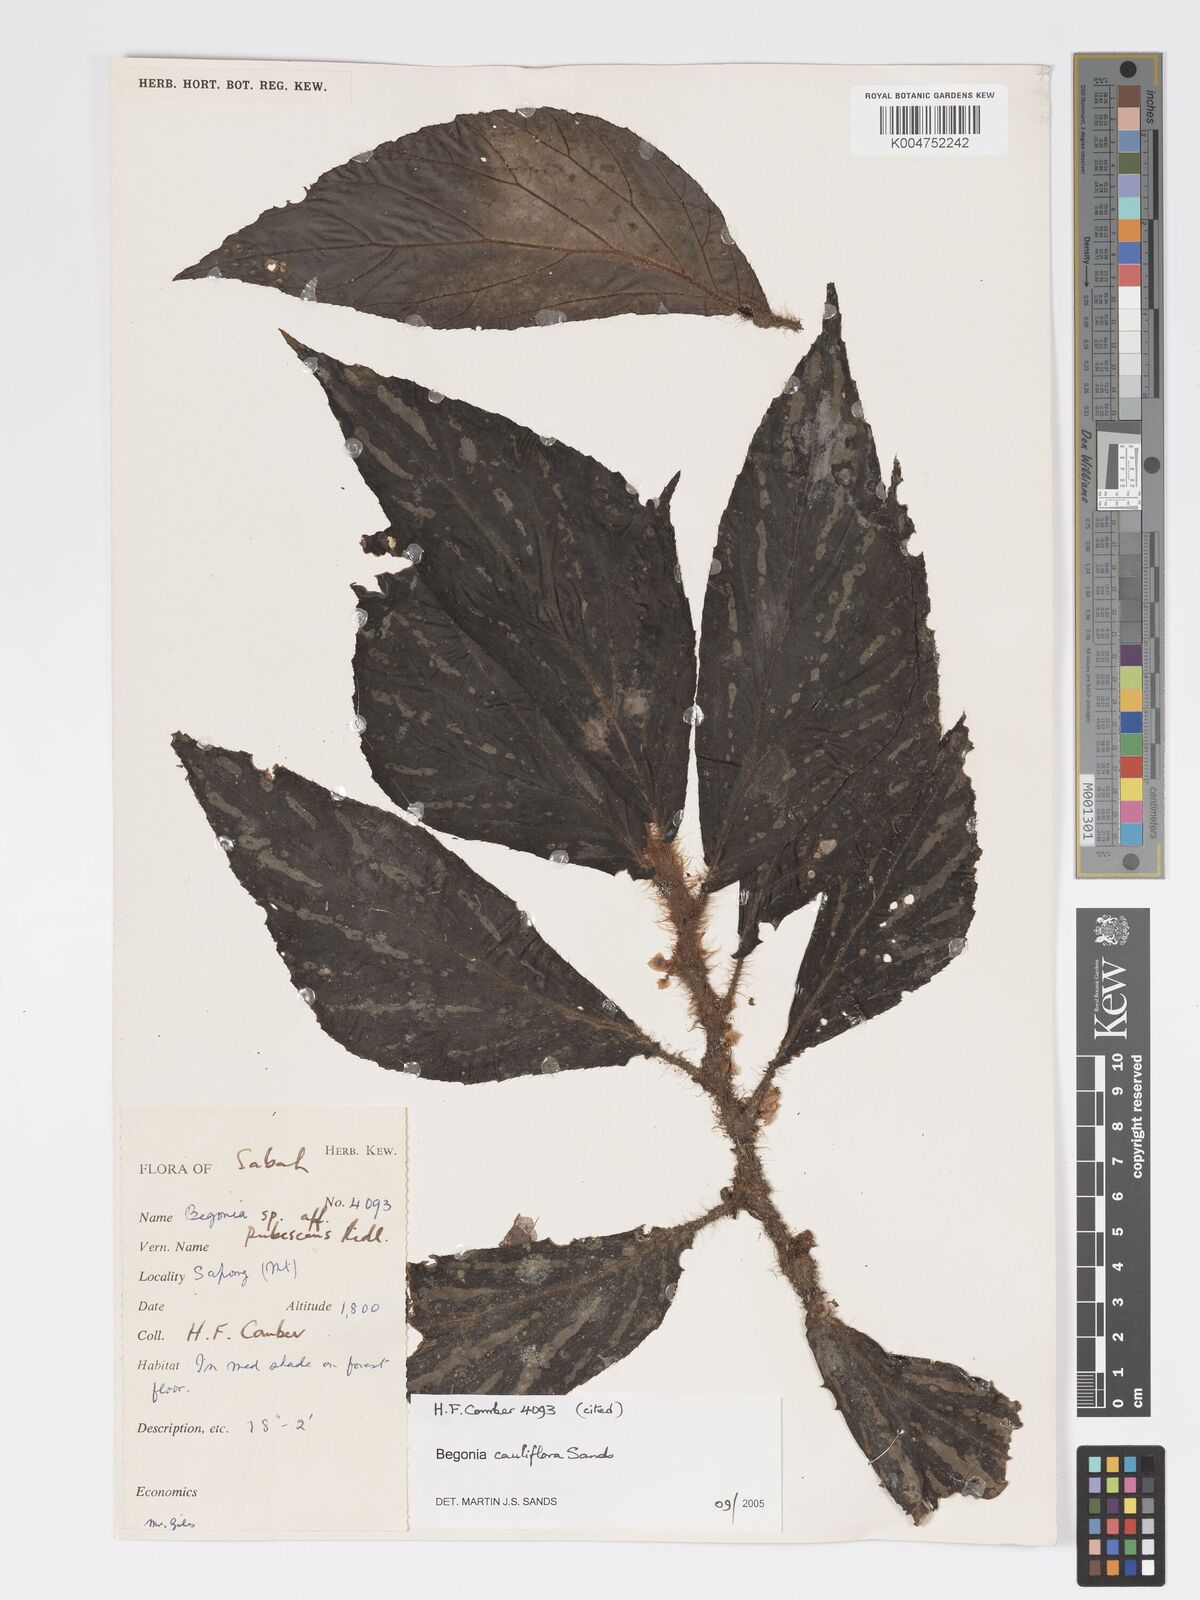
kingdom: Plantae
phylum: Tracheophyta
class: Magnoliopsida
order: Cucurbitales
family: Begoniaceae
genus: Begonia
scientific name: Begonia cauliflora
